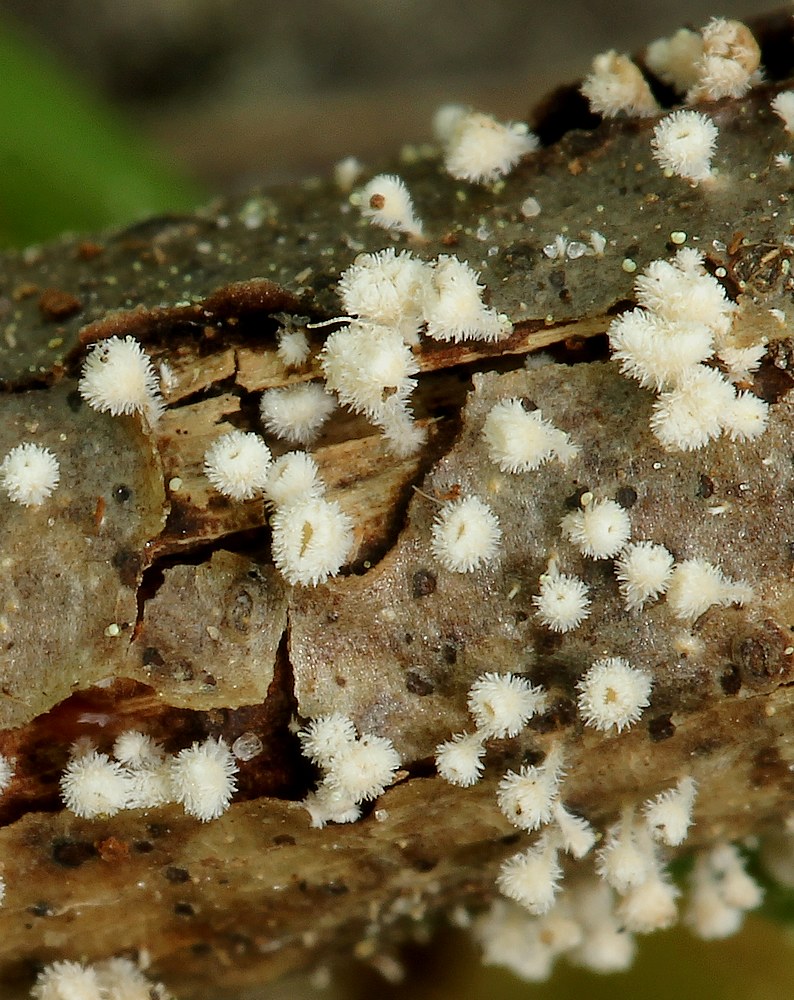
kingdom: Fungi
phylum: Ascomycota
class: Leotiomycetes
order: Helotiales
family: Lachnaceae
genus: Lachnum
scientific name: Lachnum virgineum
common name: jomfru-frynseskive
